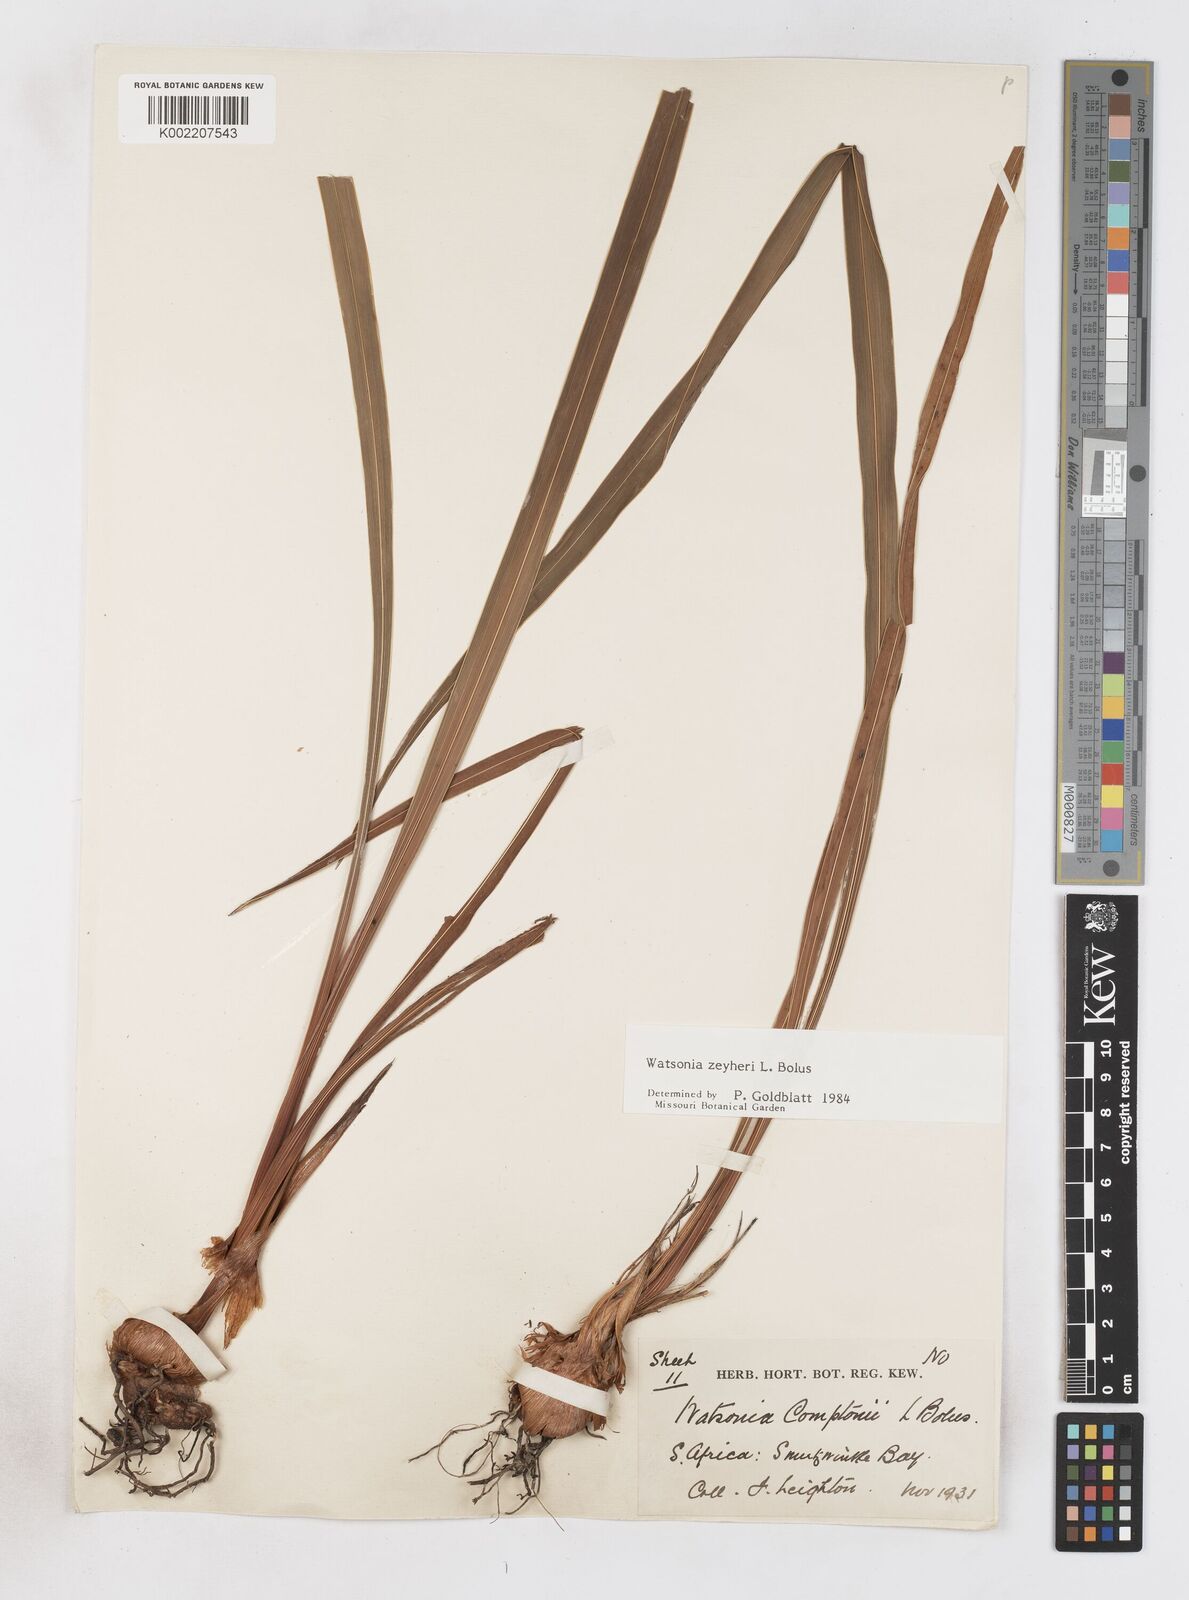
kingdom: Plantae
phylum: Tracheophyta
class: Liliopsida
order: Asparagales
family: Iridaceae
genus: Watsonia
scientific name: Watsonia zeyheri
